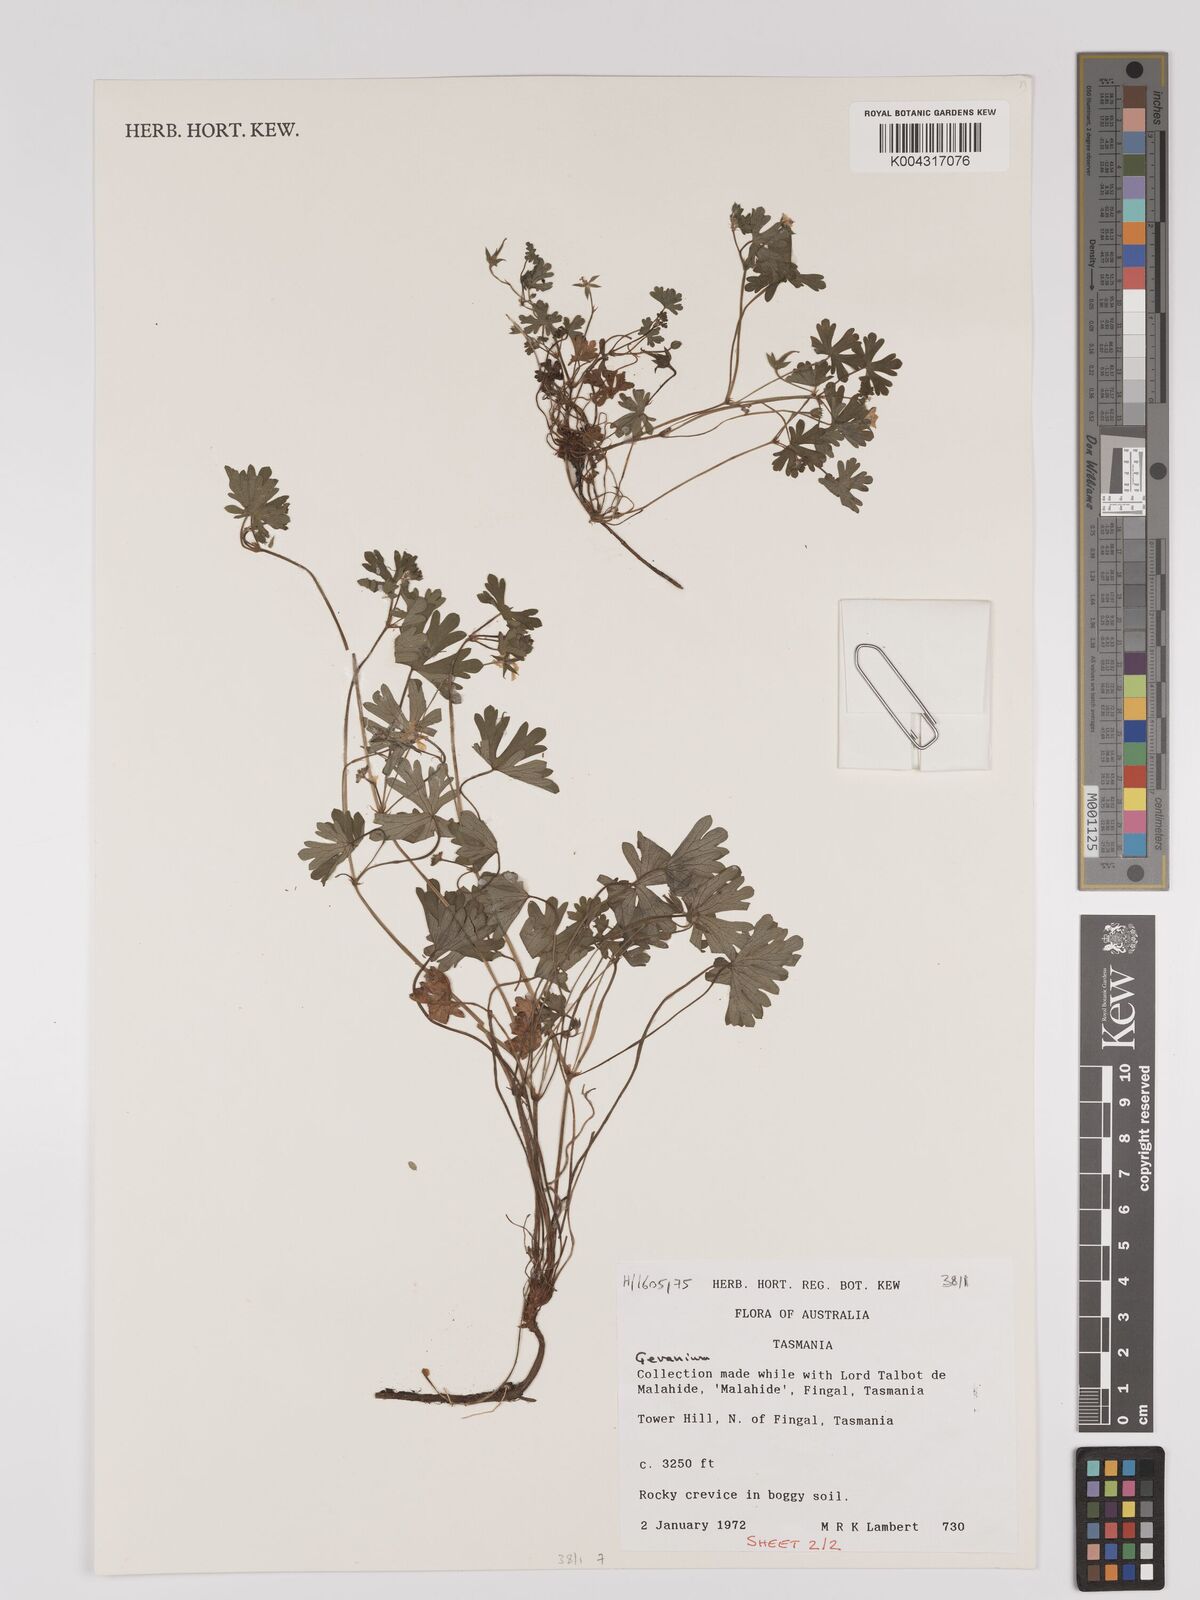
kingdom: Plantae
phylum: Tracheophyta
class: Magnoliopsida
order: Geraniales
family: Geraniaceae
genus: Geranium
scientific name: Geranium
